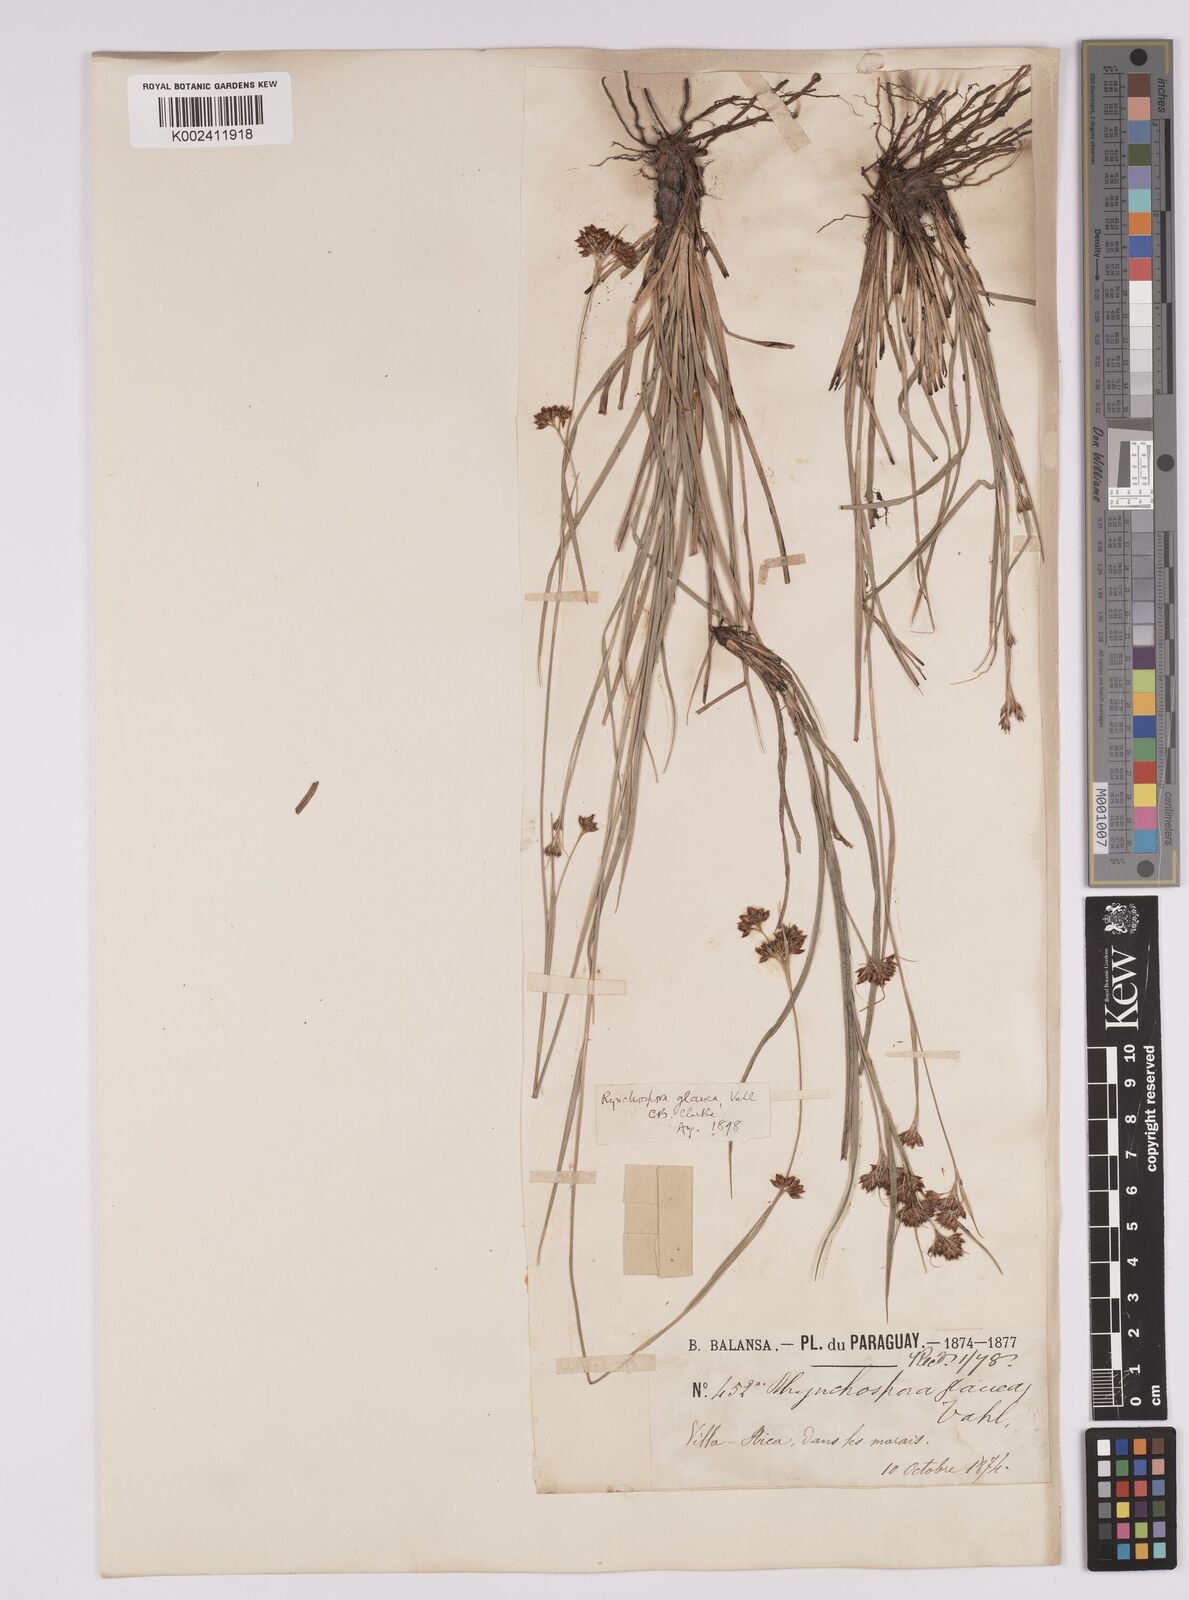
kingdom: Plantae
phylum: Tracheophyta
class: Liliopsida
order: Poales
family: Cyperaceae
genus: Rhynchospora
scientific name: Rhynchospora rugosa
